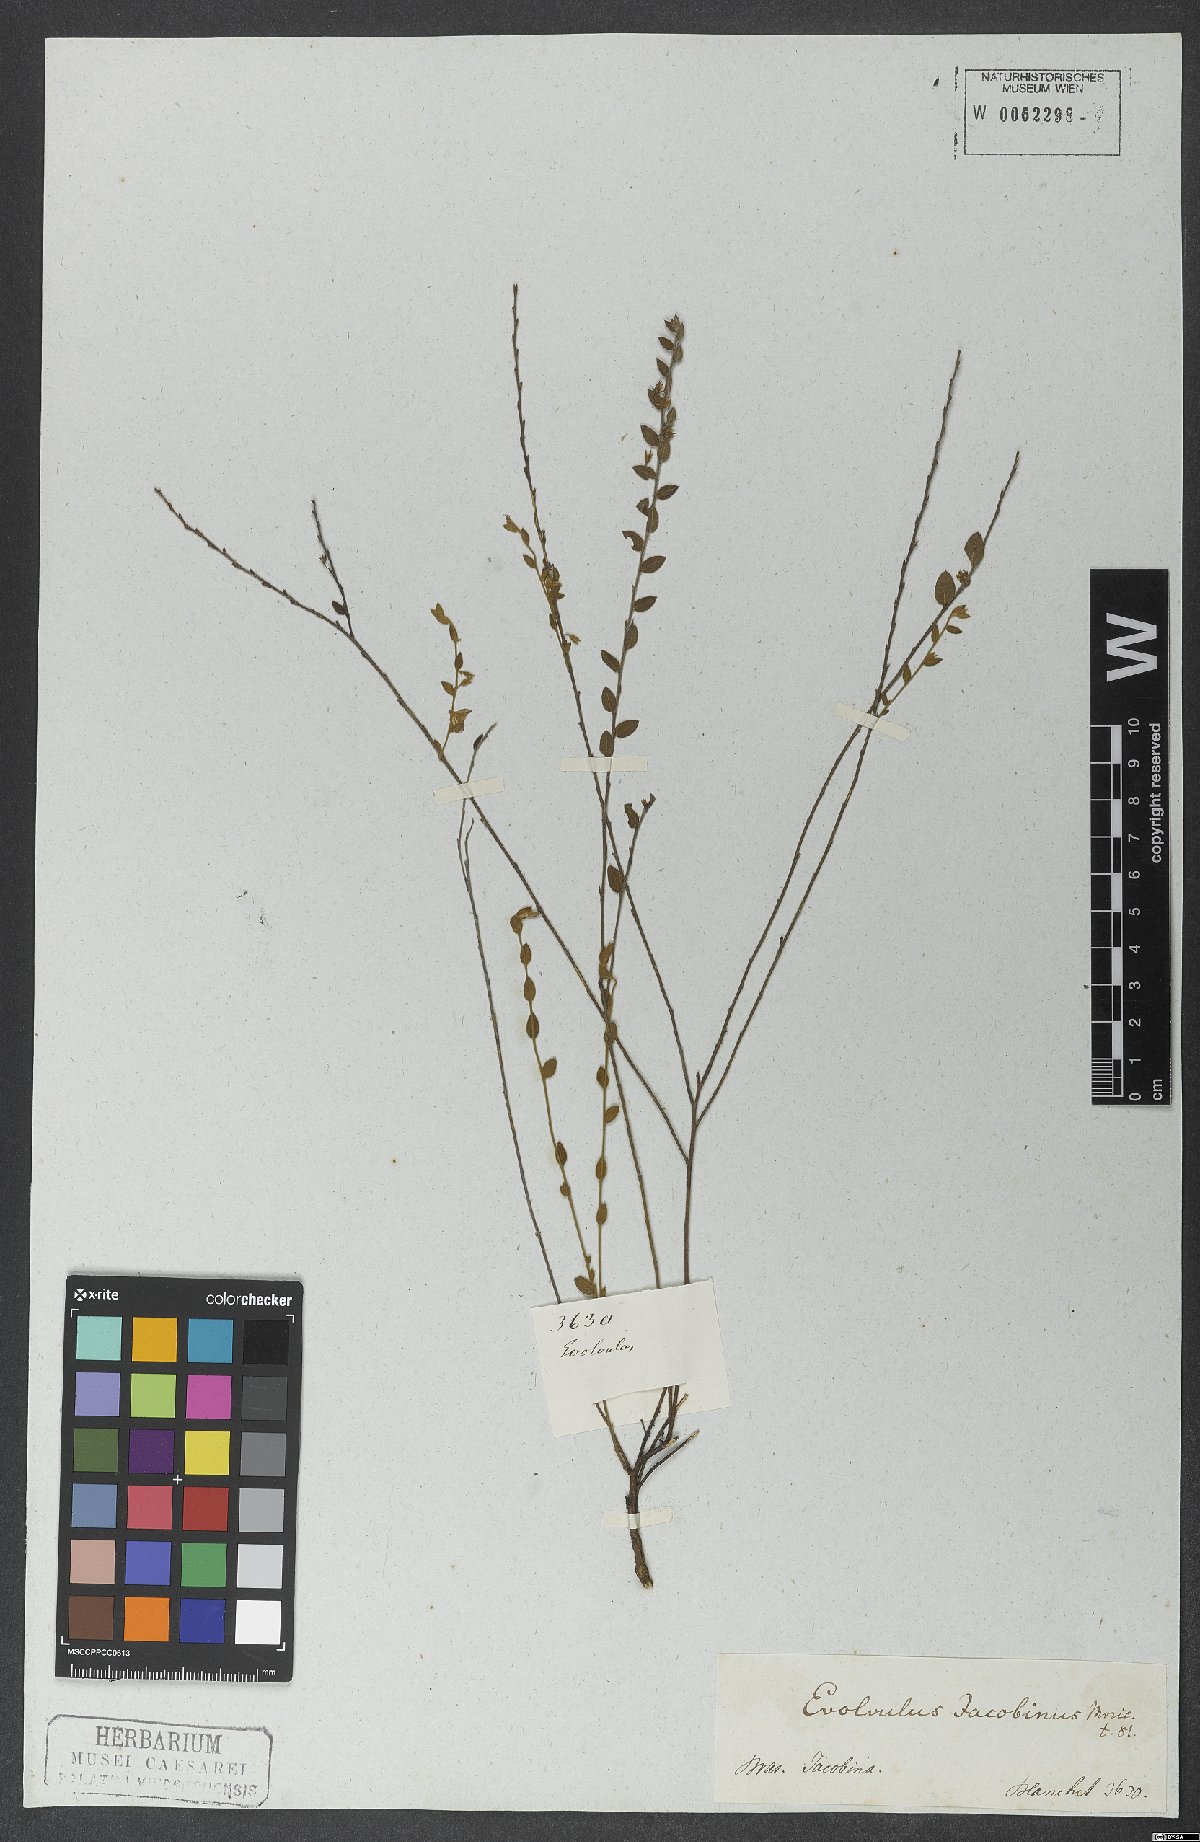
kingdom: Plantae
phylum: Tracheophyta
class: Magnoliopsida
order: Solanales
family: Convolvulaceae
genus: Evolvulus
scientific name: Evolvulus jacobinus
